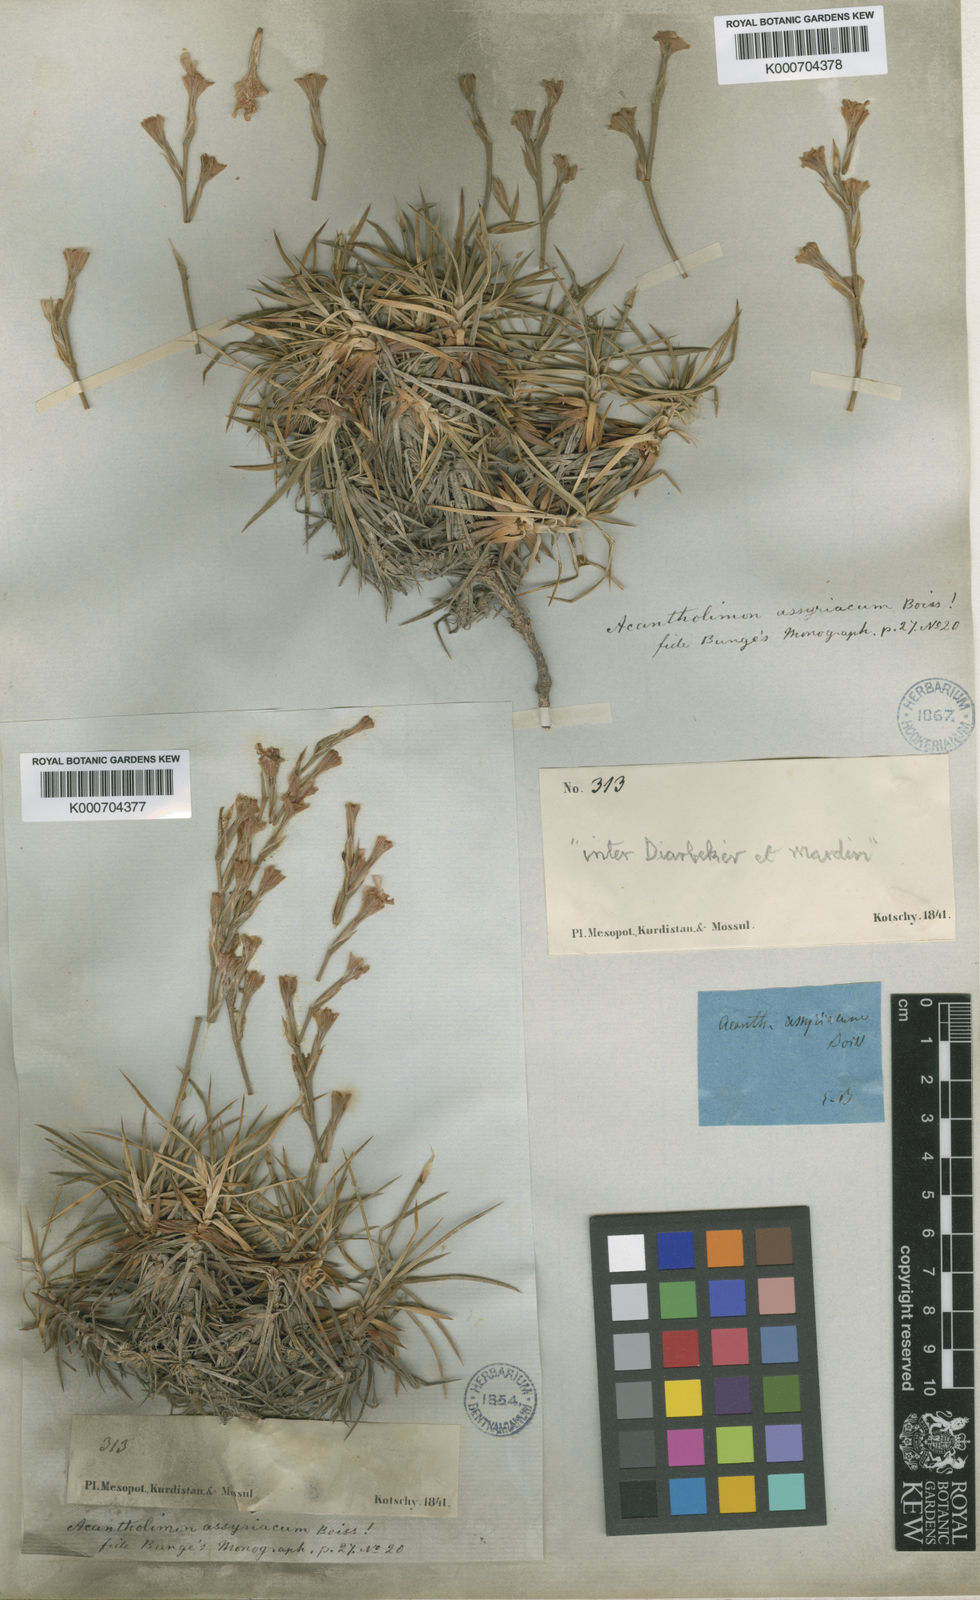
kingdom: Plantae
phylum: Tracheophyta
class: Magnoliopsida
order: Caryophyllales
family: Plumbaginaceae
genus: Acantholimon
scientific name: Acantholimon venustum
